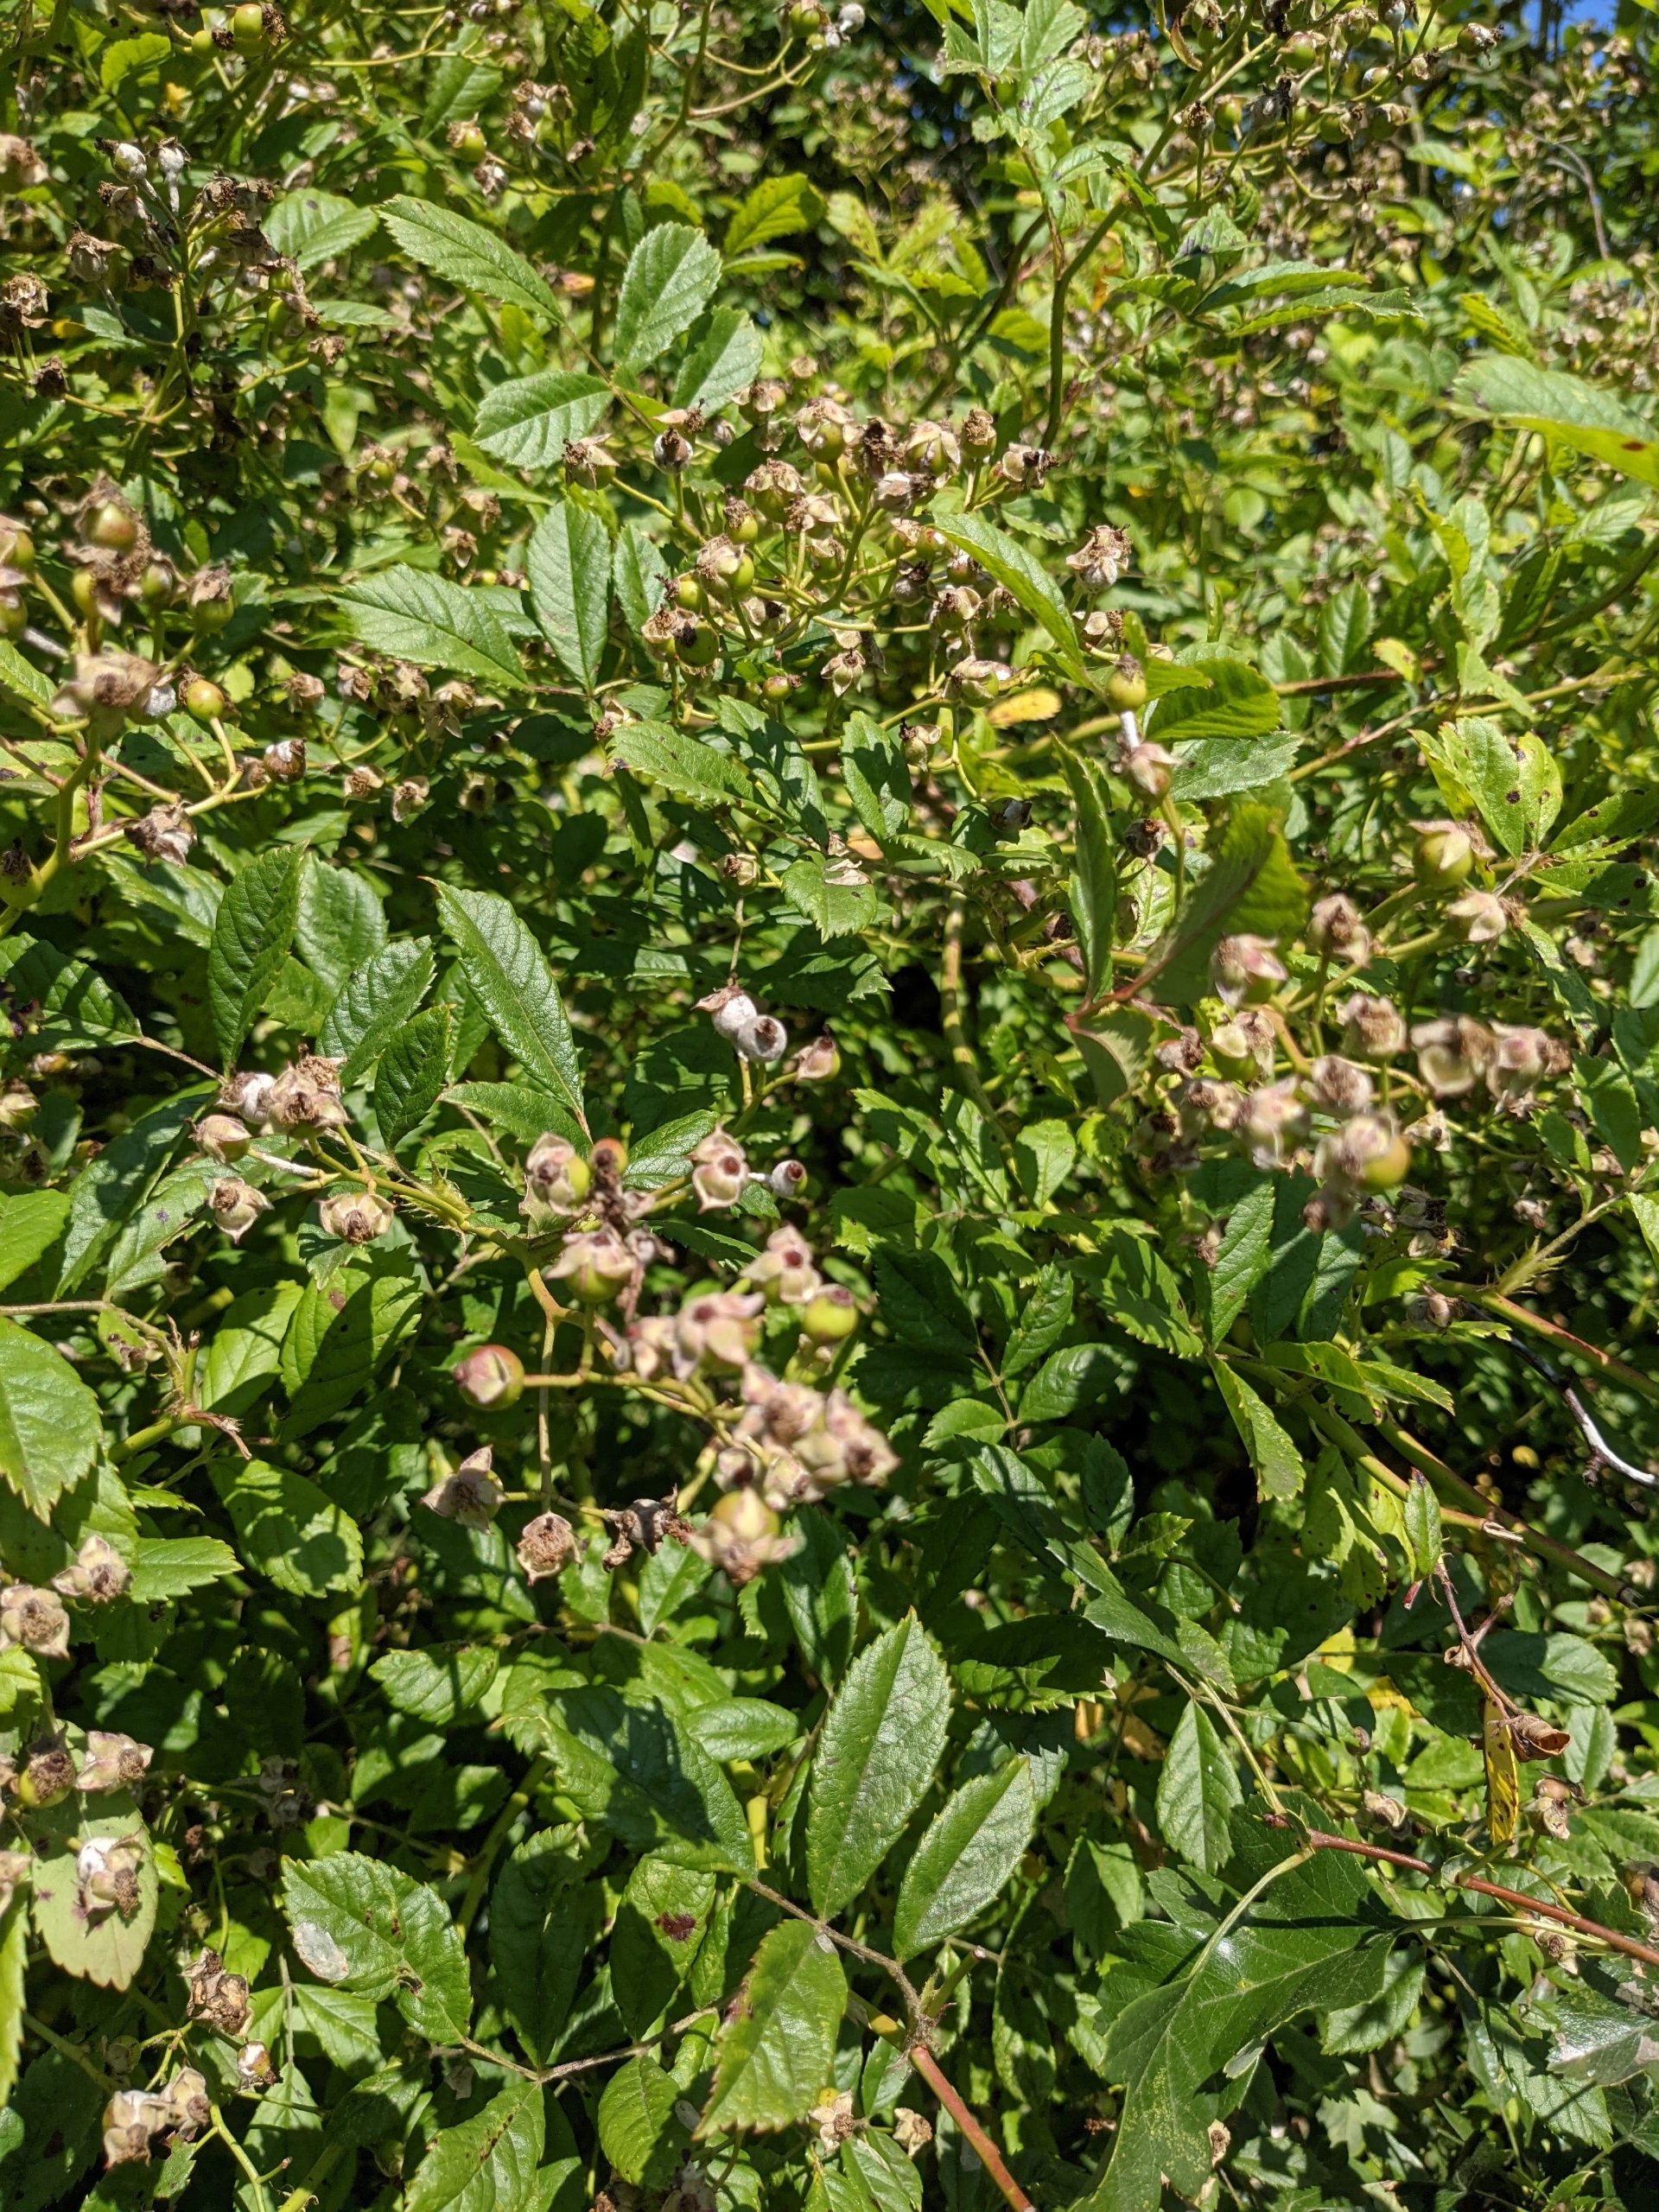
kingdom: Plantae
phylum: Tracheophyta
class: Magnoliopsida
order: Rosales
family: Rosaceae
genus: Rosa
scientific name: Rosa multiflora
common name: Mangeblomstret rose
